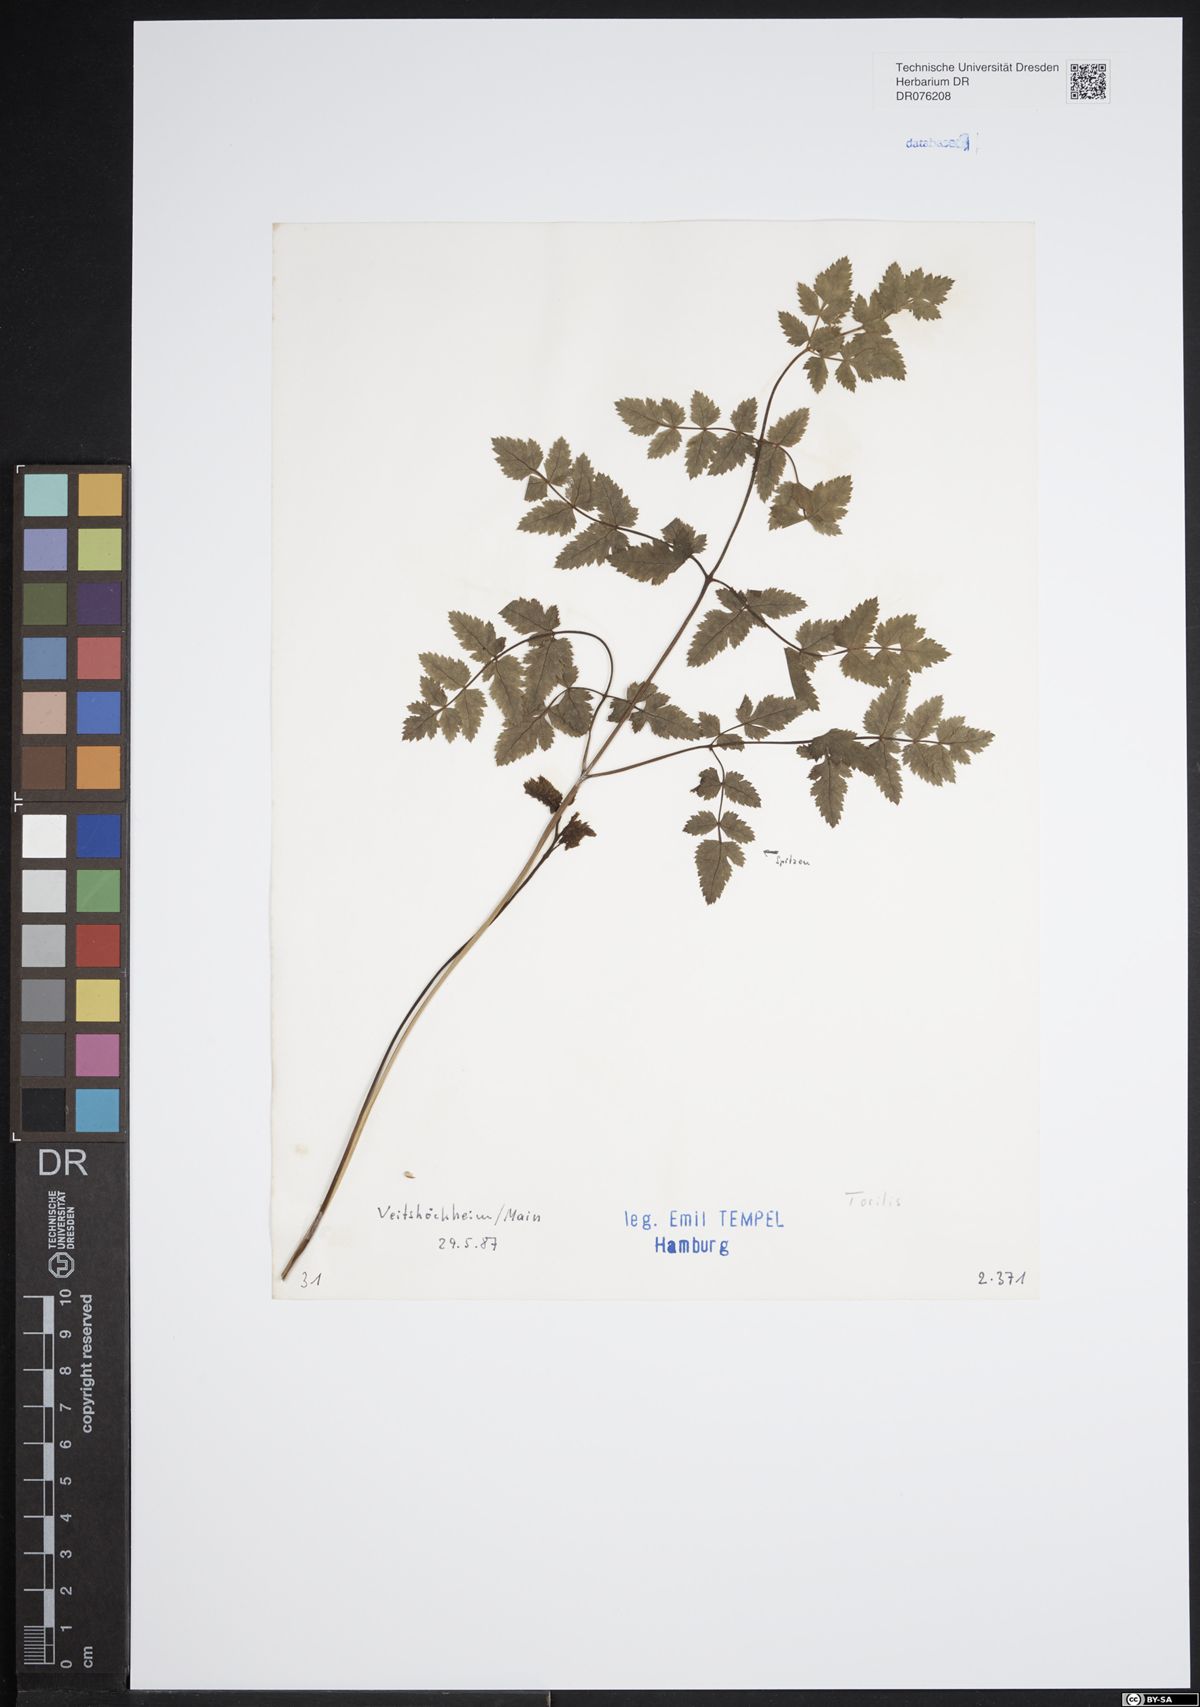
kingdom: Plantae
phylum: Tracheophyta
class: Magnoliopsida
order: Apiales
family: Apiaceae
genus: Torilis
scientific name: Torilis
